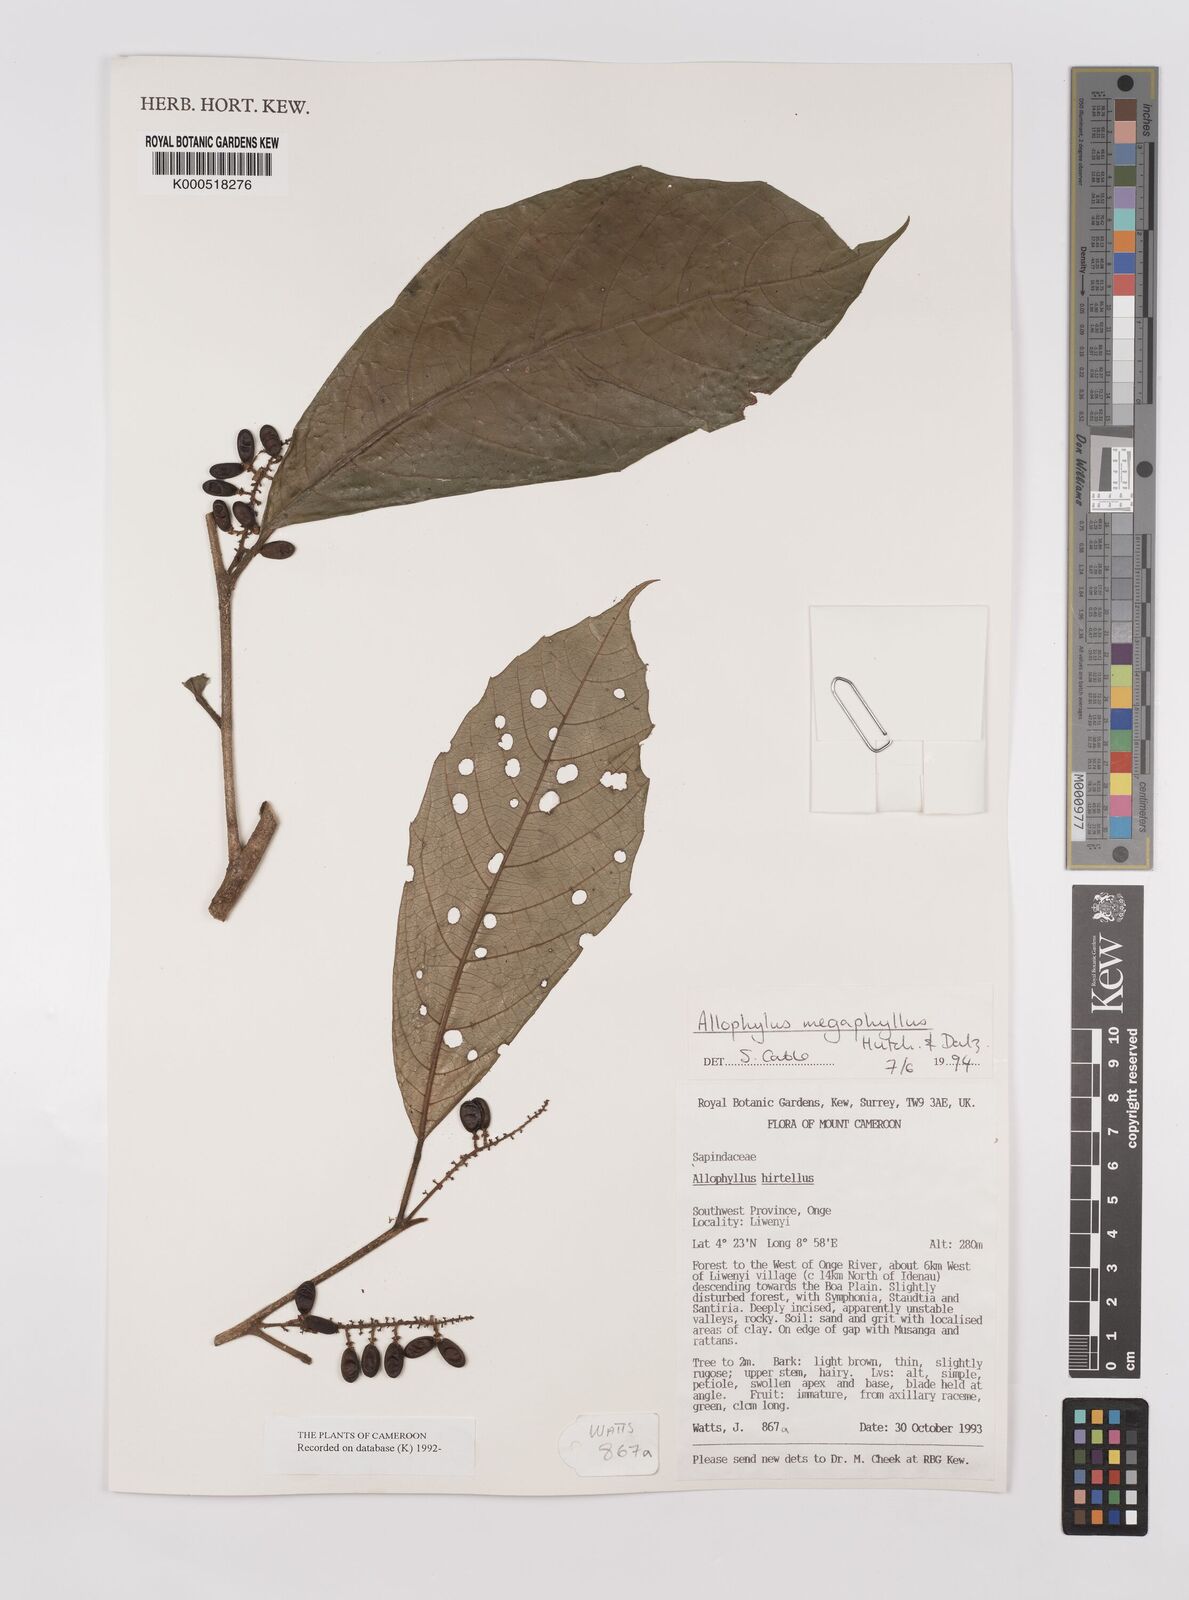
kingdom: Plantae
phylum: Tracheophyta
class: Magnoliopsida
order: Sapindales
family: Sapindaceae
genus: Allophylus
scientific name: Allophylus hirtellus
